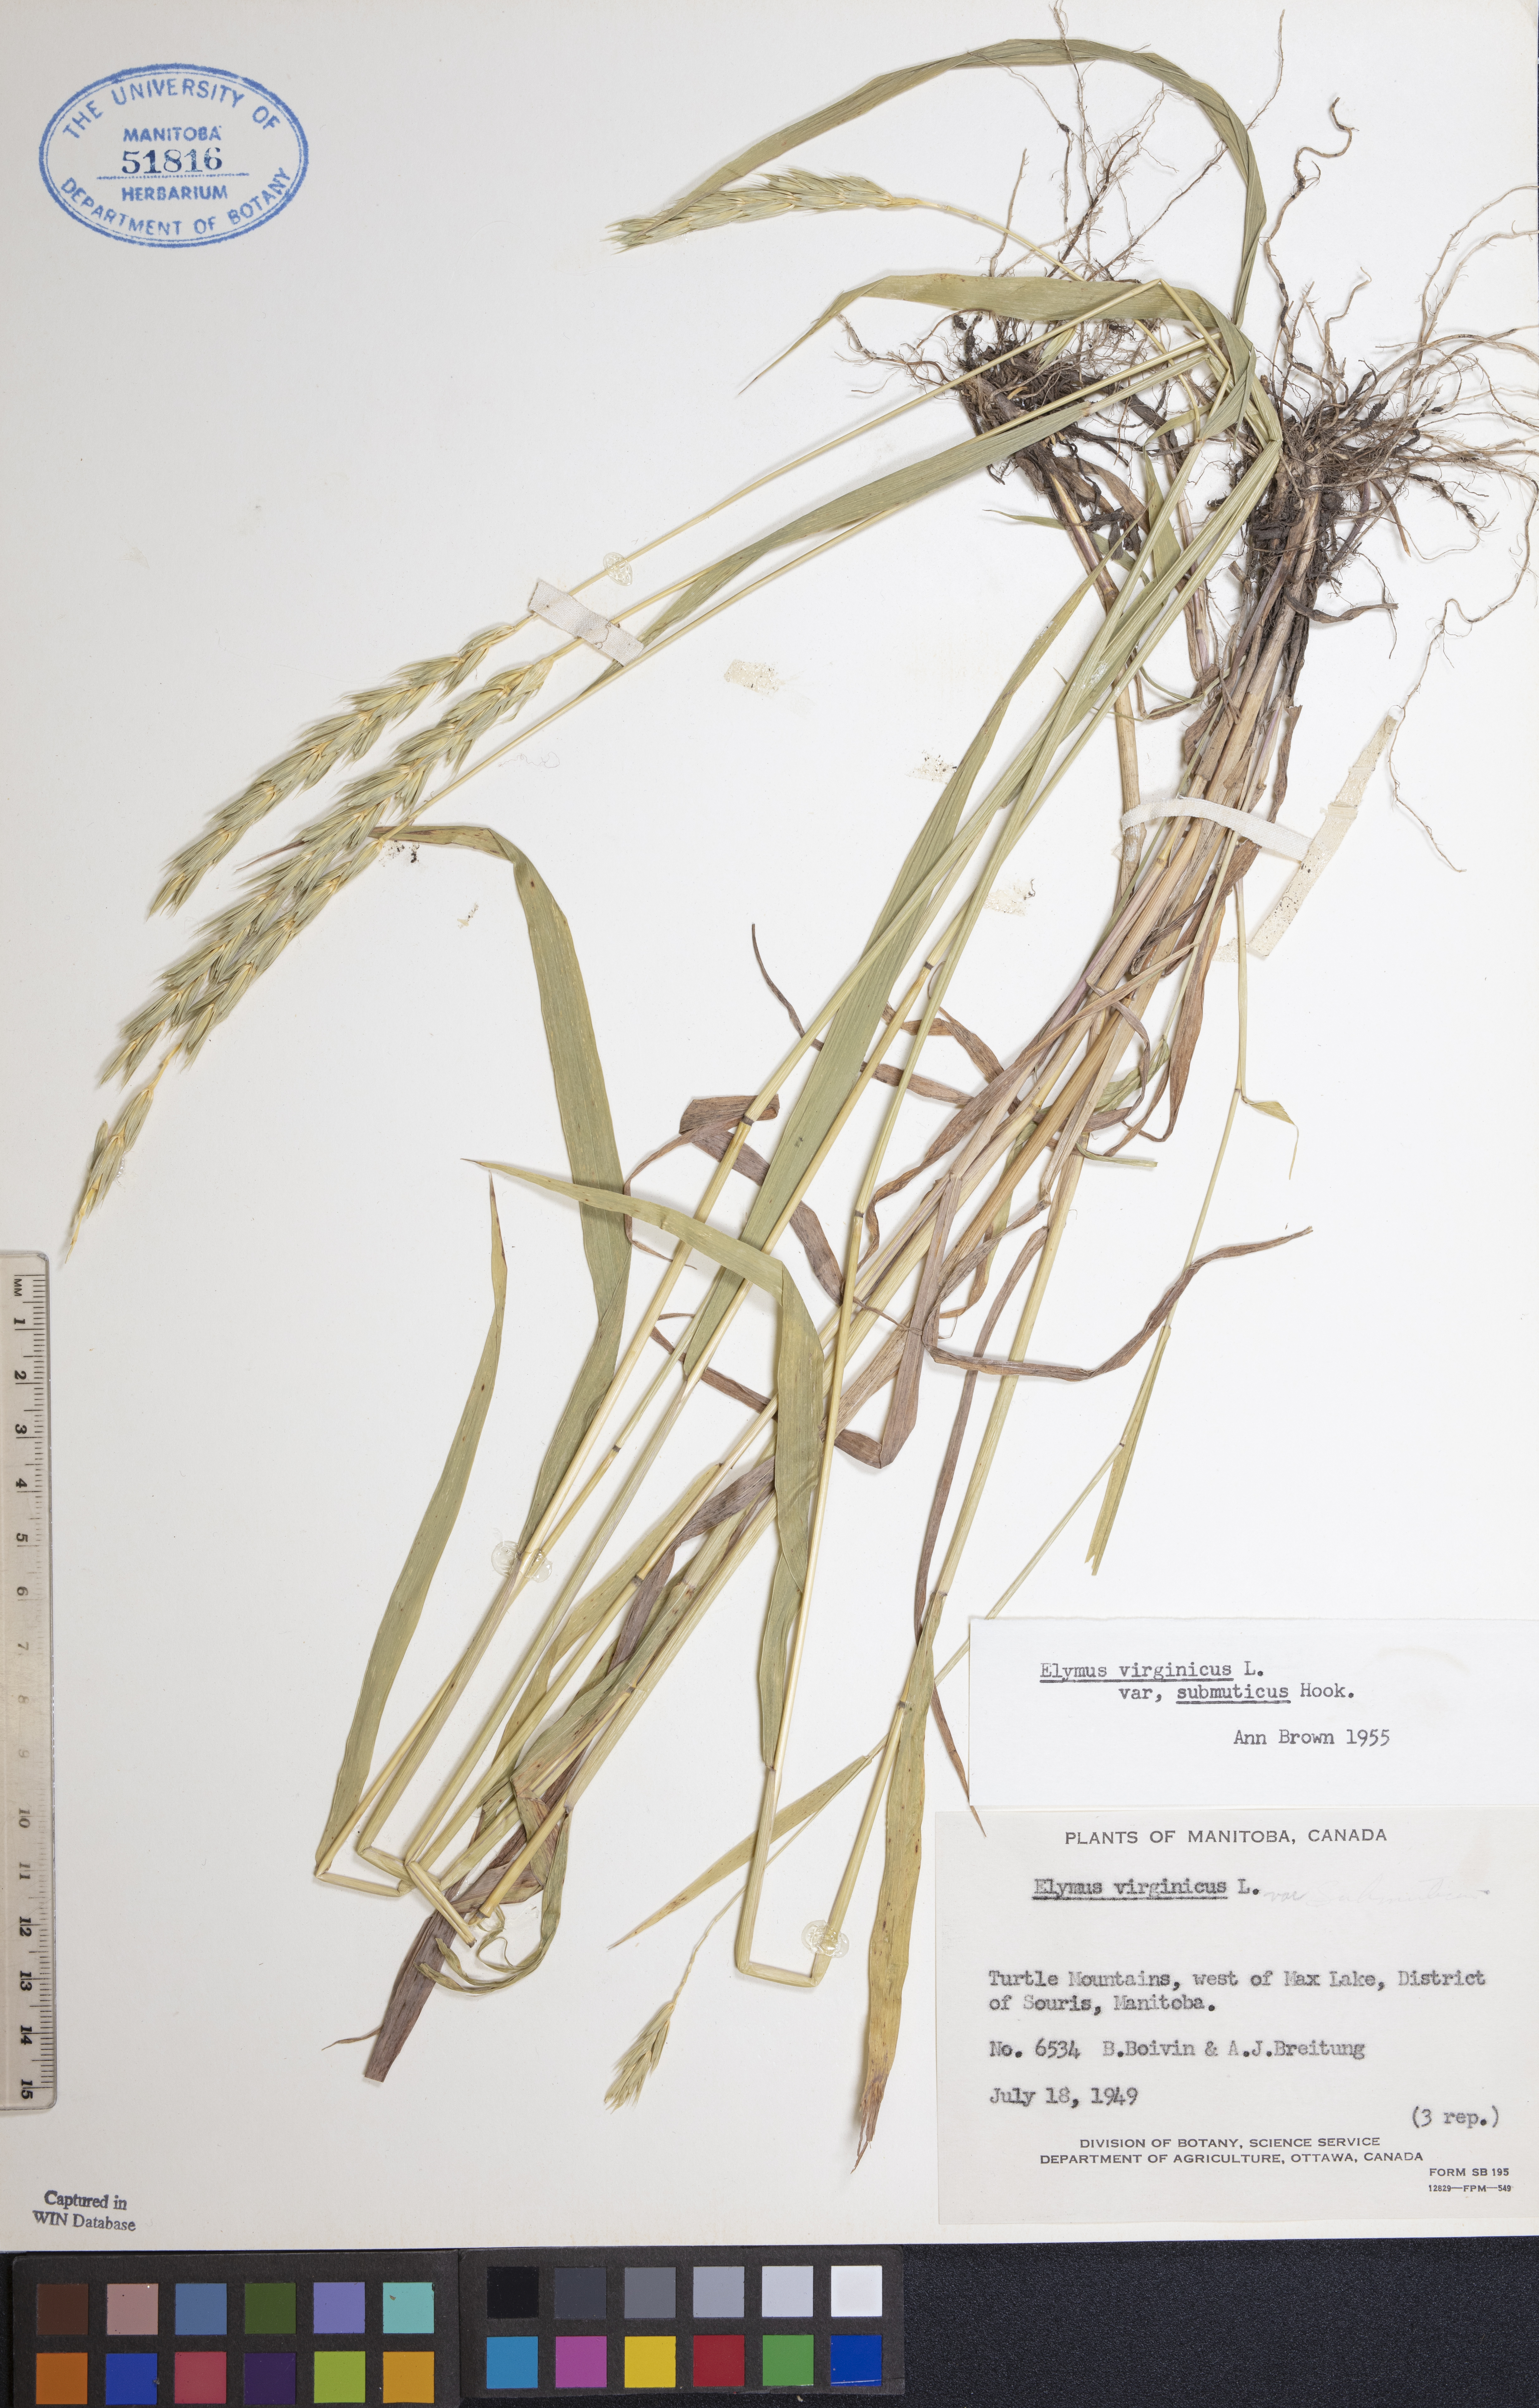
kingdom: Plantae
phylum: Tracheophyta
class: Liliopsida
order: Poales
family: Poaceae
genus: Elymus
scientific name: Elymus curvatus
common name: Awnless wild rye
